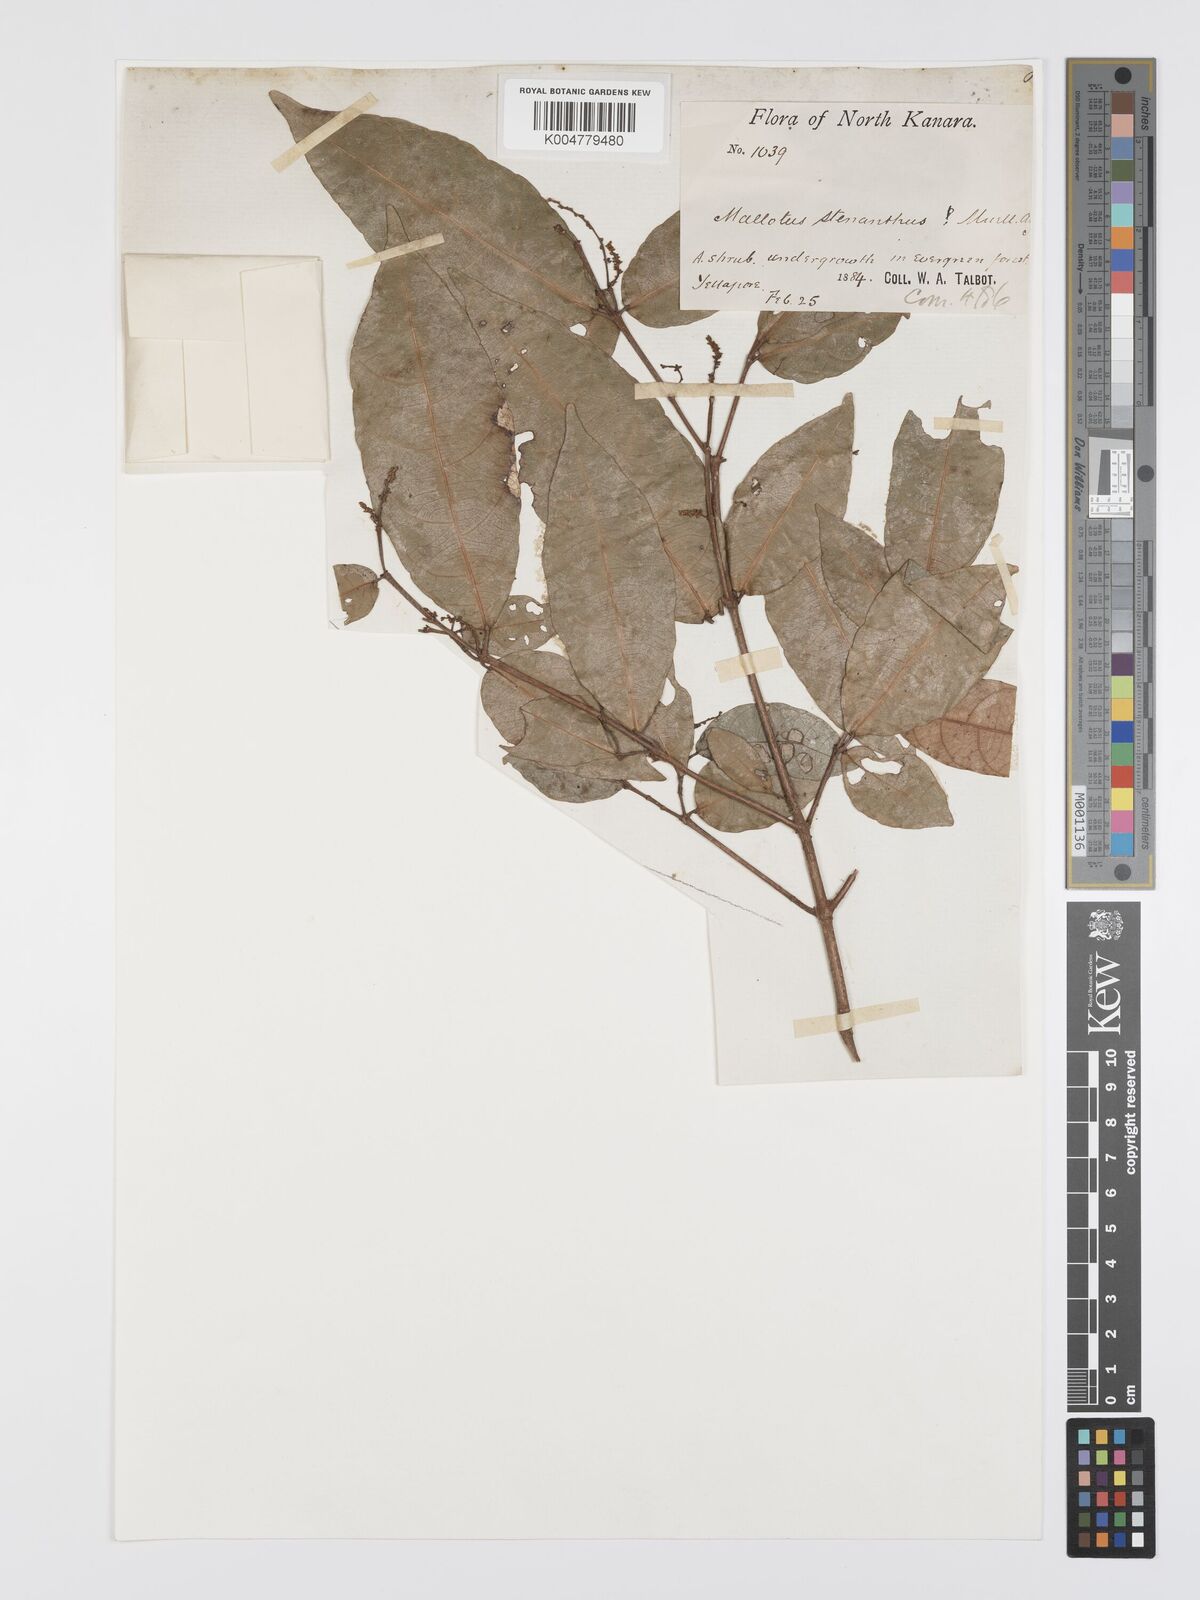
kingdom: Plantae
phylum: Tracheophyta
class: Magnoliopsida
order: Malpighiales
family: Euphorbiaceae
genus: Mallotus
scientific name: Mallotus resinosus
